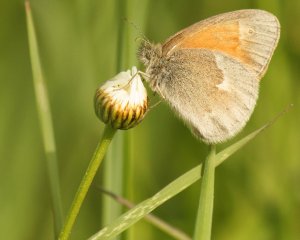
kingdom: Animalia
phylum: Arthropoda
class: Insecta
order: Lepidoptera
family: Nymphalidae
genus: Coenonympha
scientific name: Coenonympha tullia
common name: Large Heath
